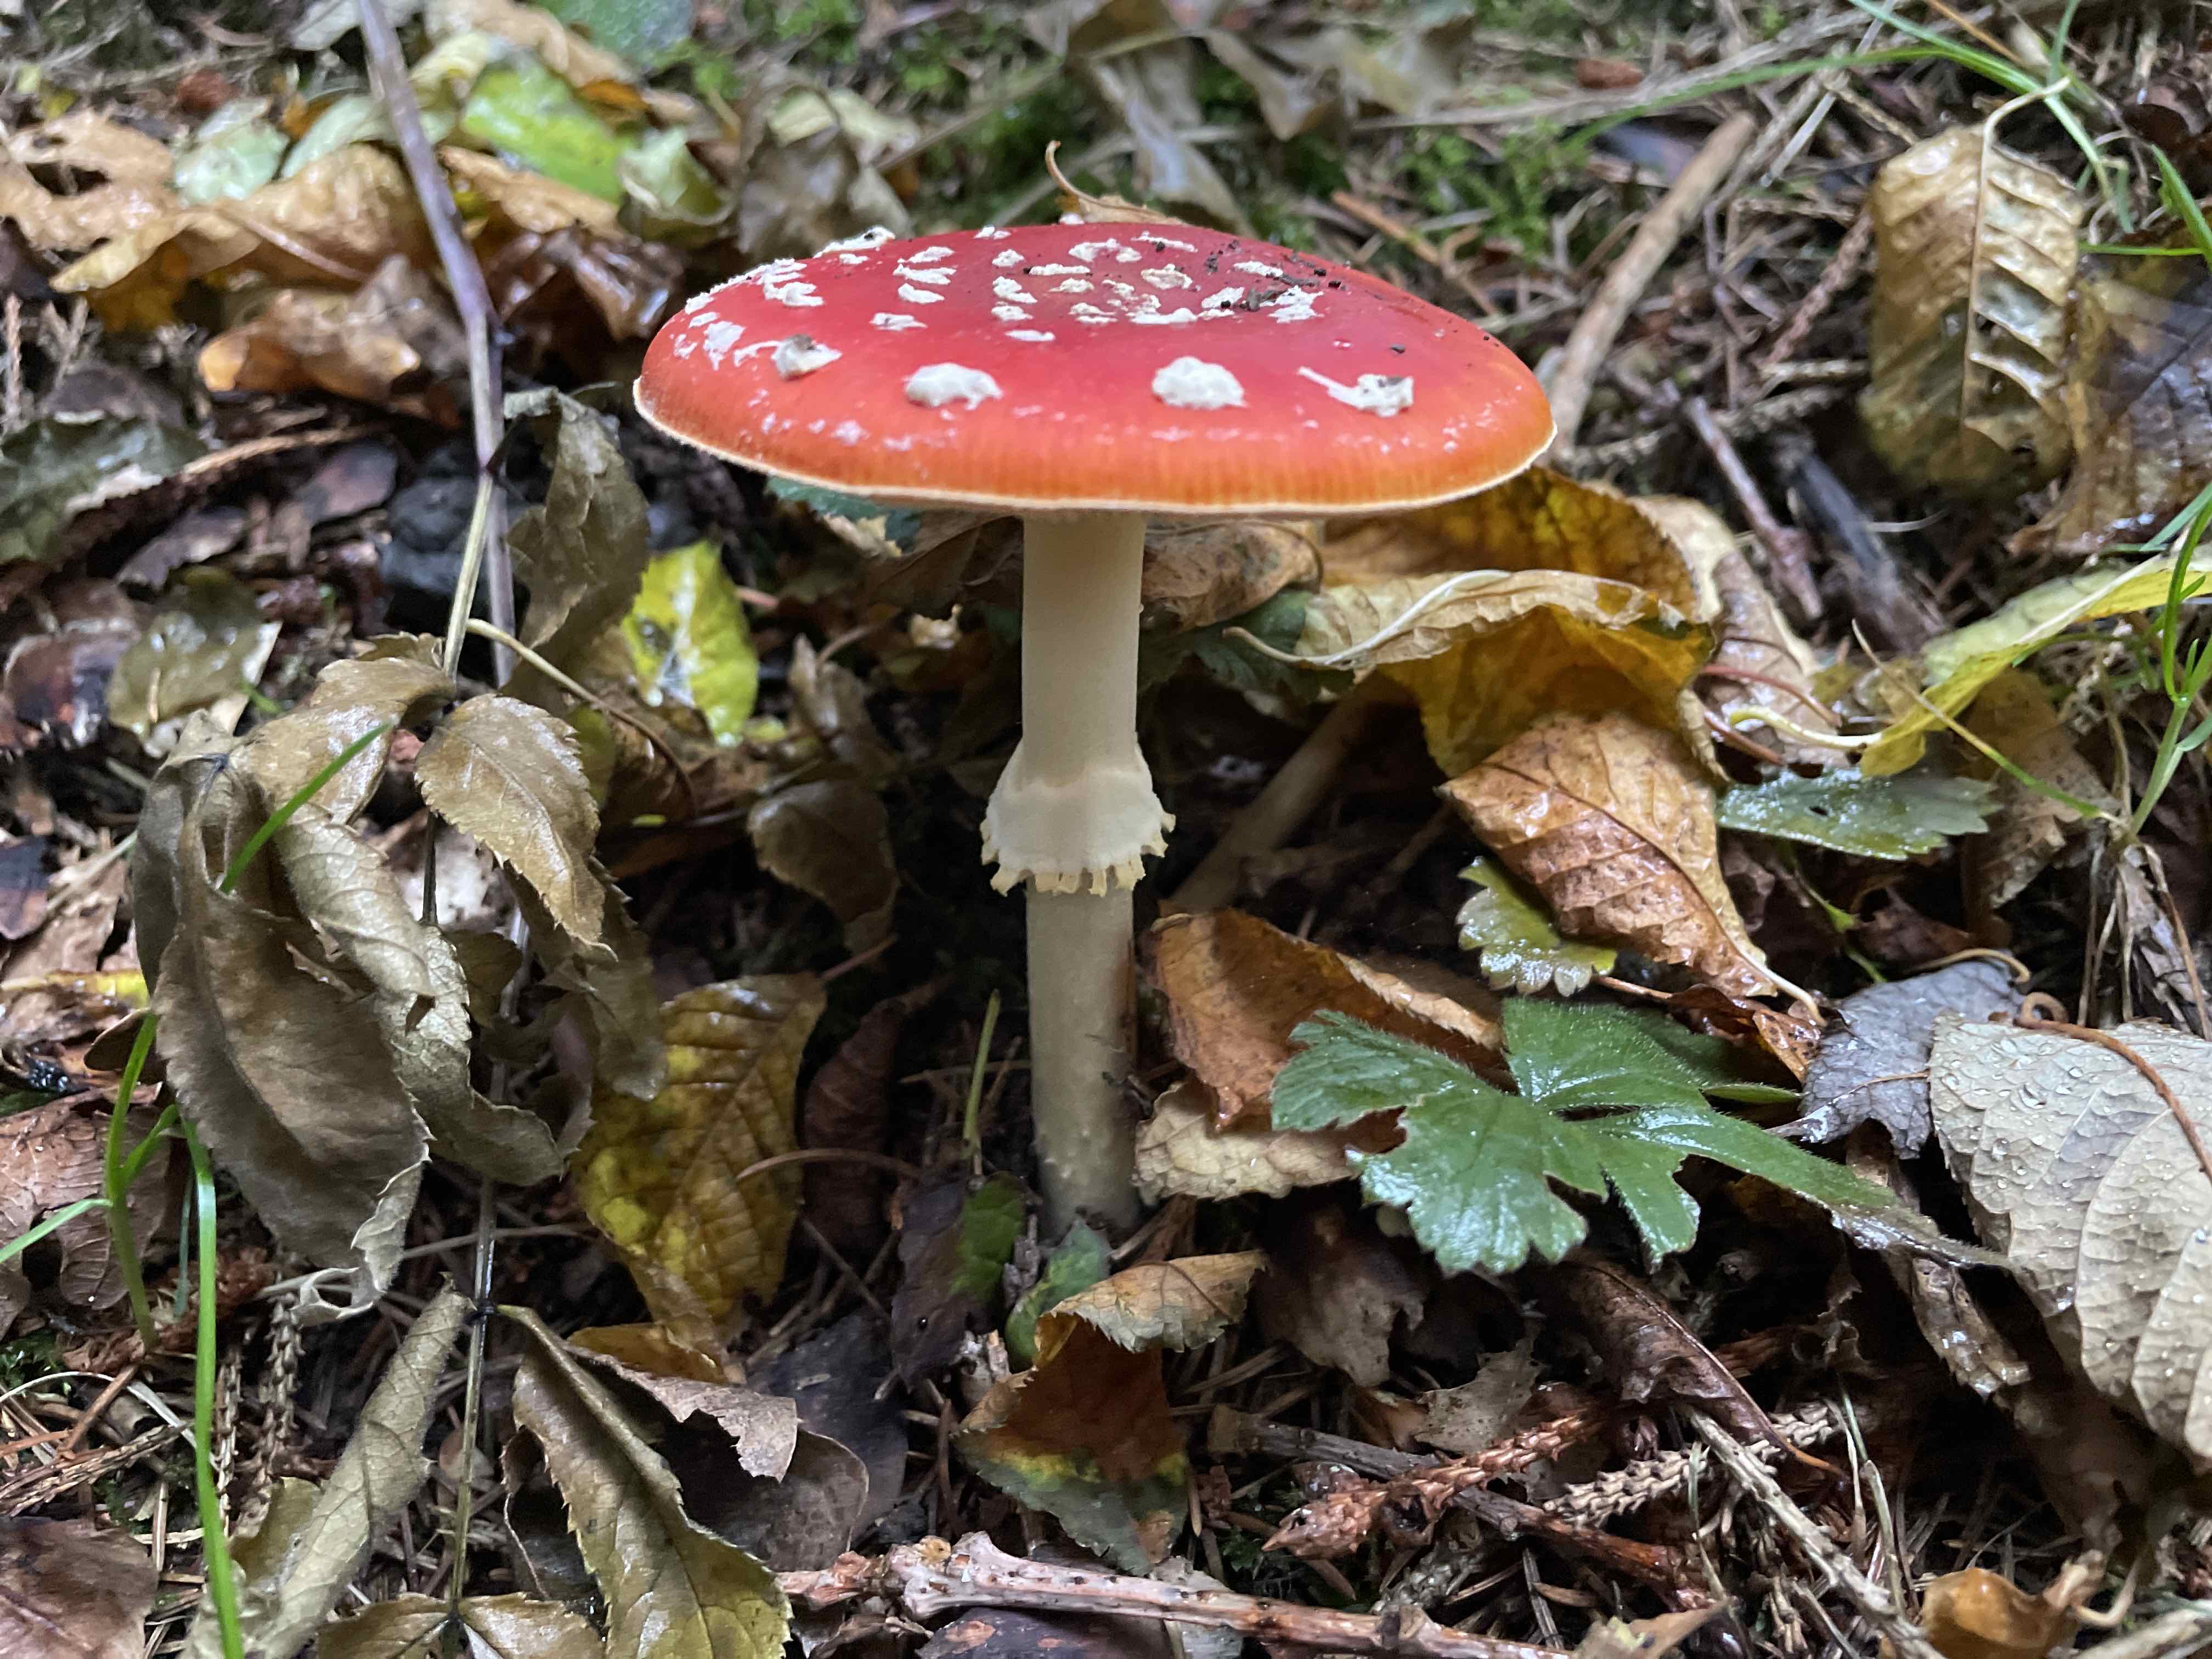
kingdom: Fungi
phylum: Basidiomycota
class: Agaricomycetes
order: Agaricales
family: Amanitaceae
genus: Amanita
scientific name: Amanita muscaria
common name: rød fluesvamp
